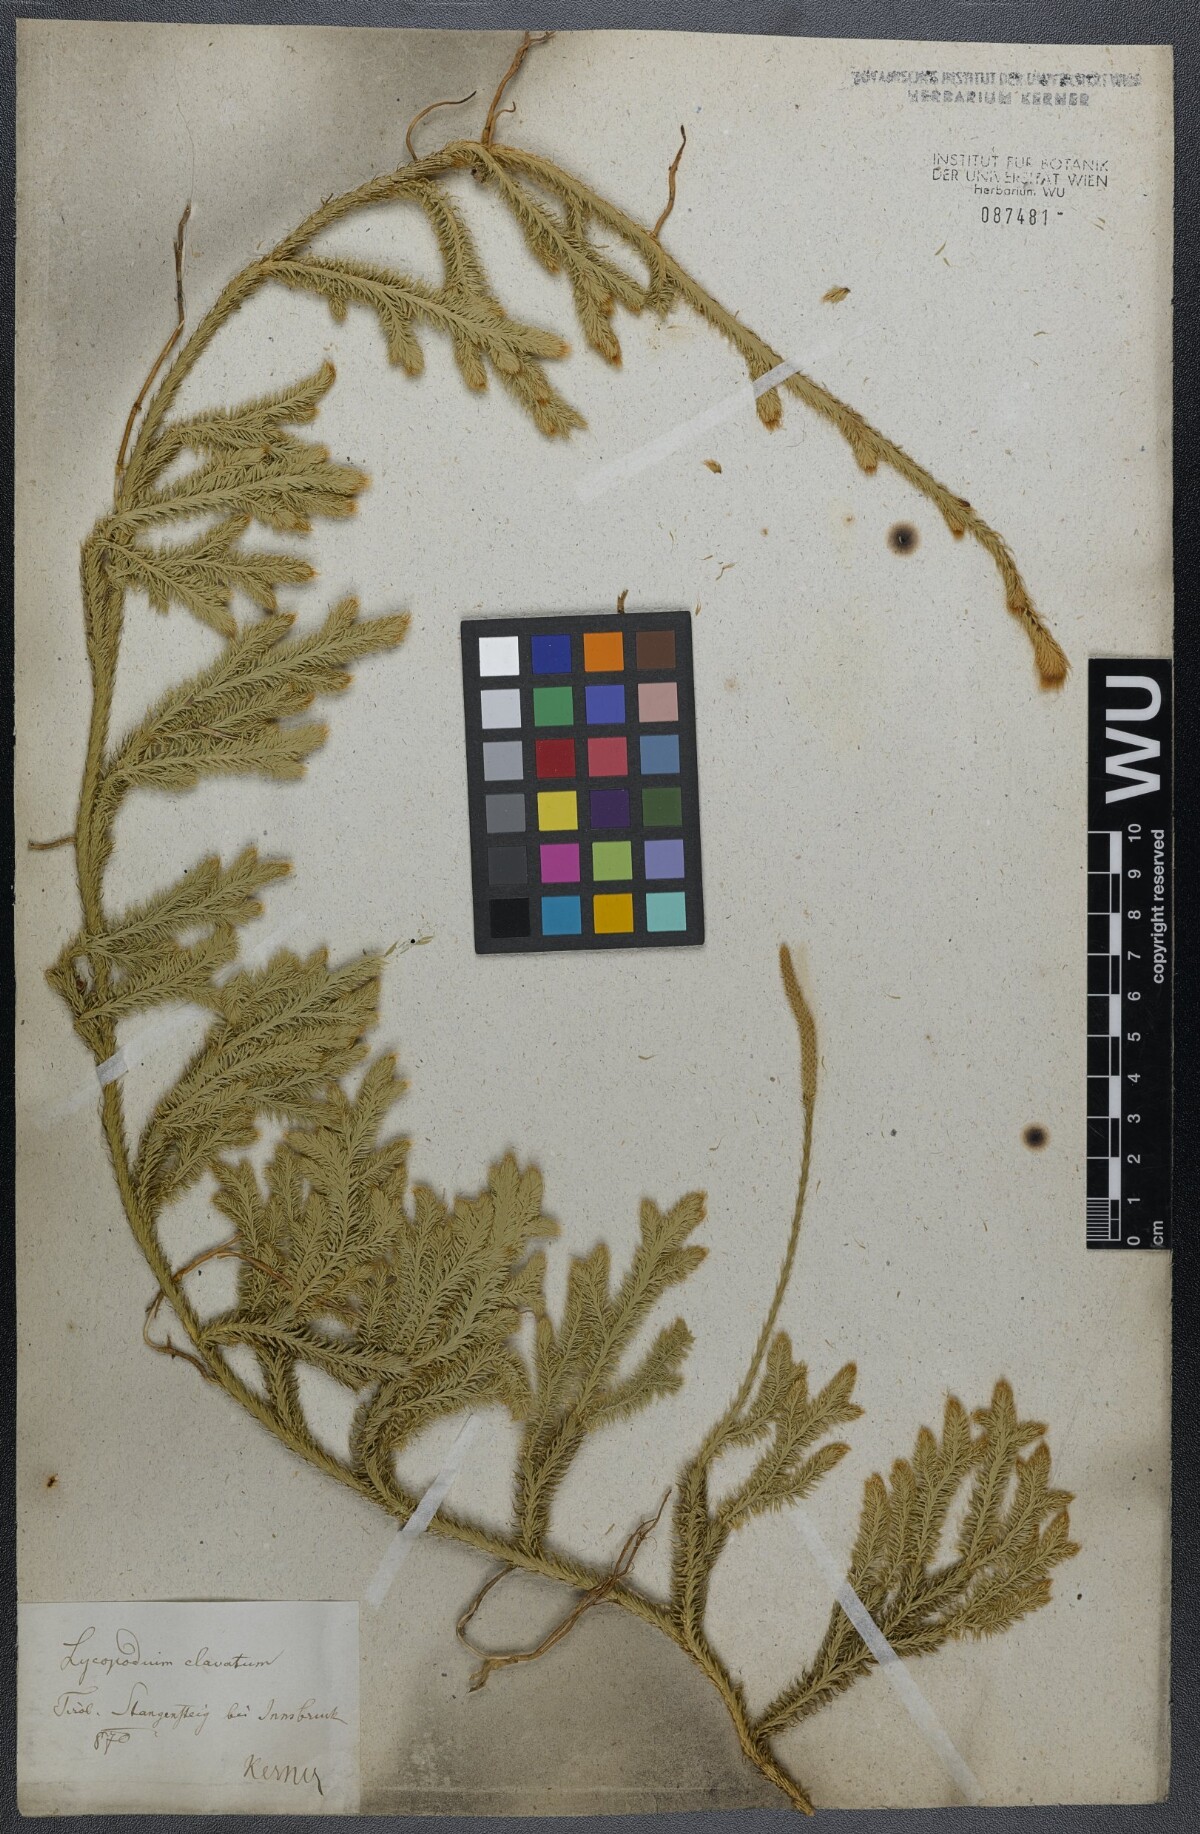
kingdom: Plantae
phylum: Tracheophyta
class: Lycopodiopsida
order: Lycopodiales
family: Lycopodiaceae
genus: Lycopodium
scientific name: Lycopodium clavatum
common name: Stag's-horn clubmoss
